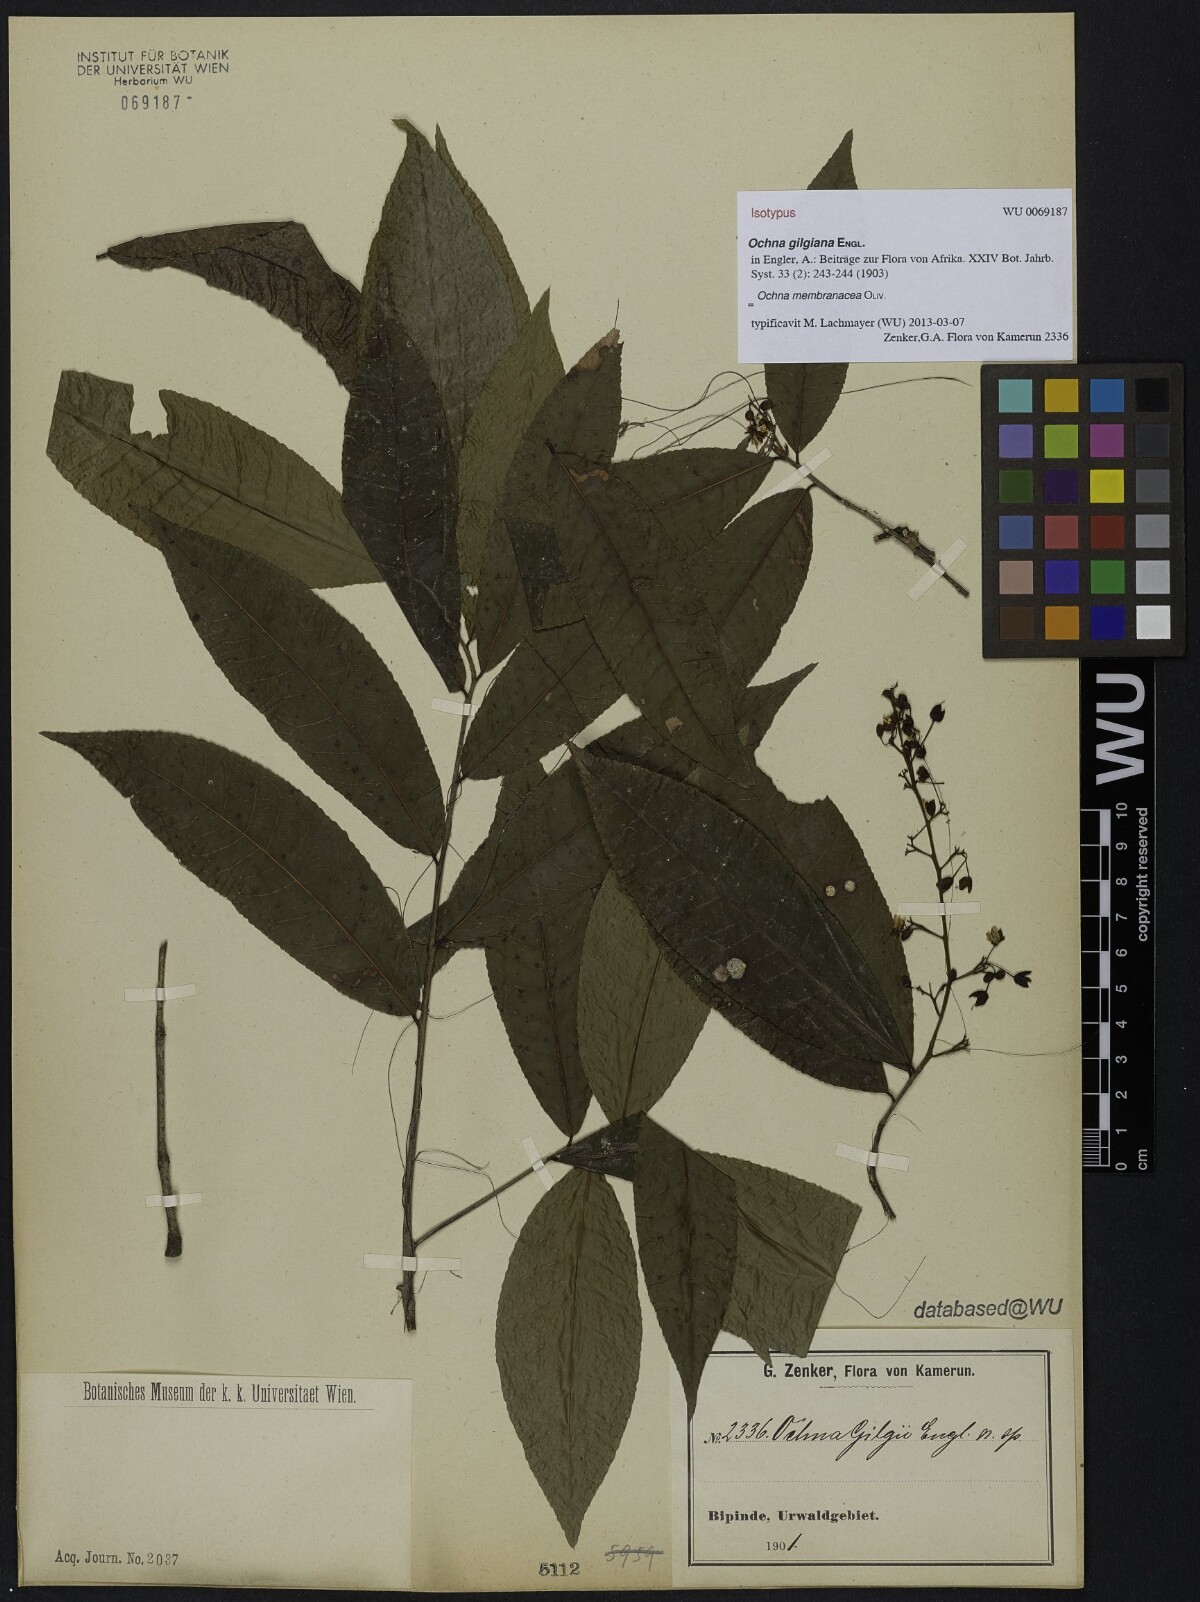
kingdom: Plantae
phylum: Tracheophyta
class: Magnoliopsida
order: Malpighiales
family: Ochnaceae
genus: Ochna
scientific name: Ochna membranacea
